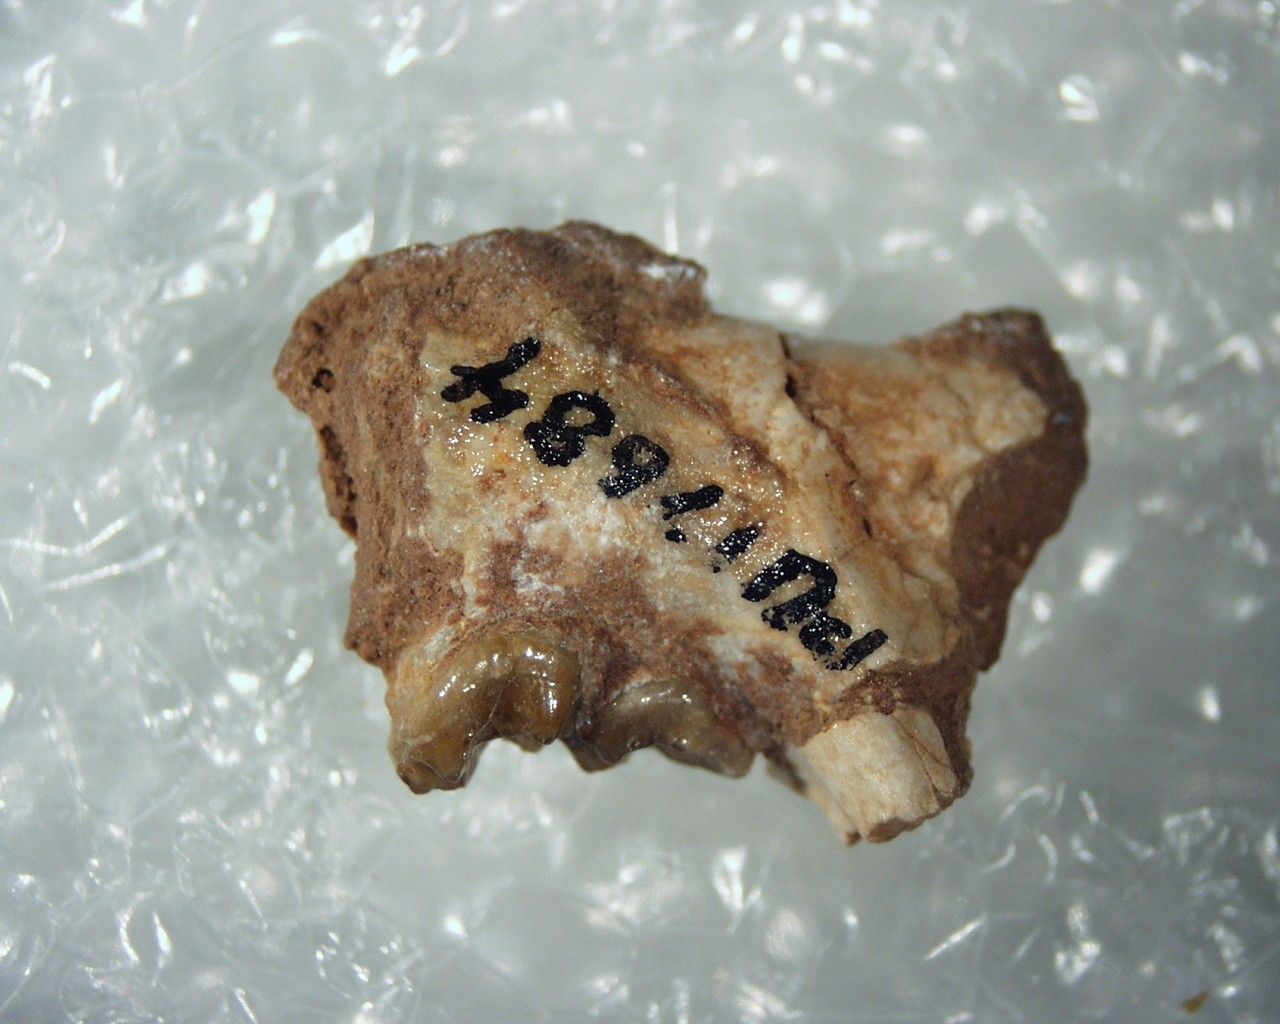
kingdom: Animalia
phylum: Chordata
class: Mammalia
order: Primates
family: Omomyidae
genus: Absarokius
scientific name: Absarokius
